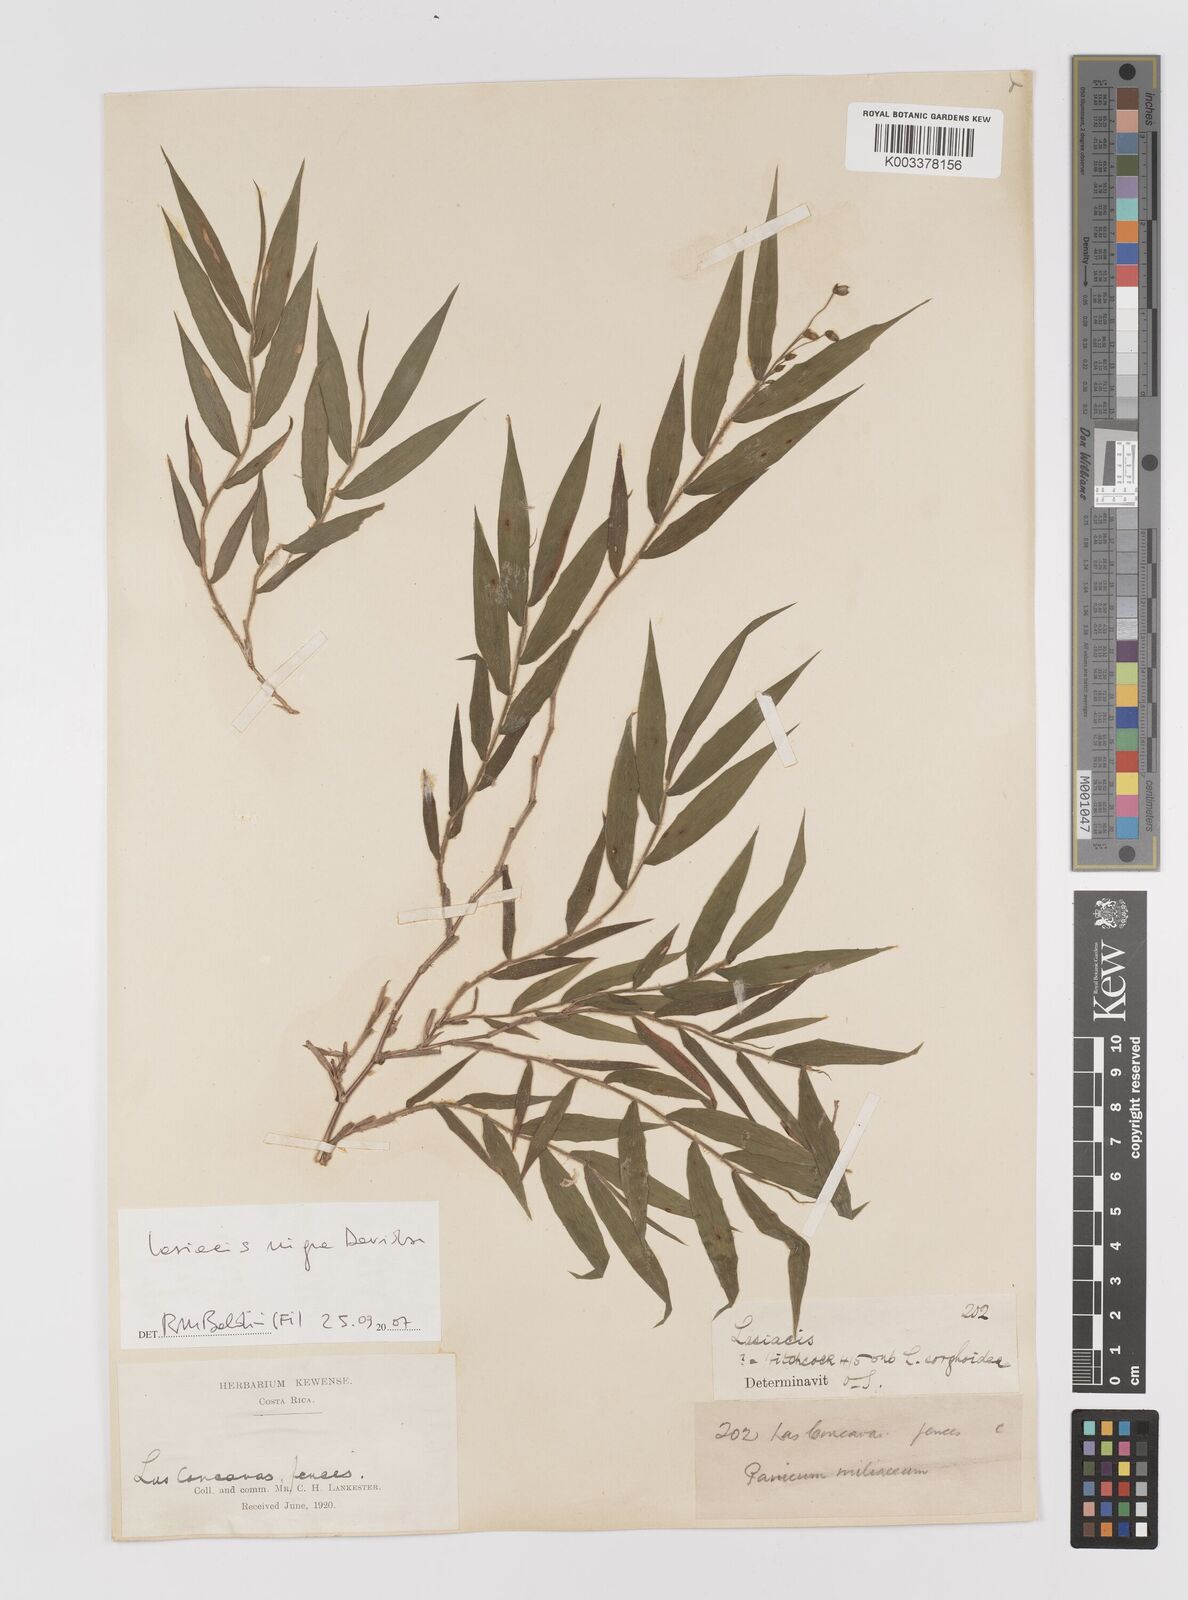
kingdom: Plantae
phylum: Tracheophyta
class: Liliopsida
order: Poales
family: Poaceae
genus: Lasiacis
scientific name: Lasiacis nigra
